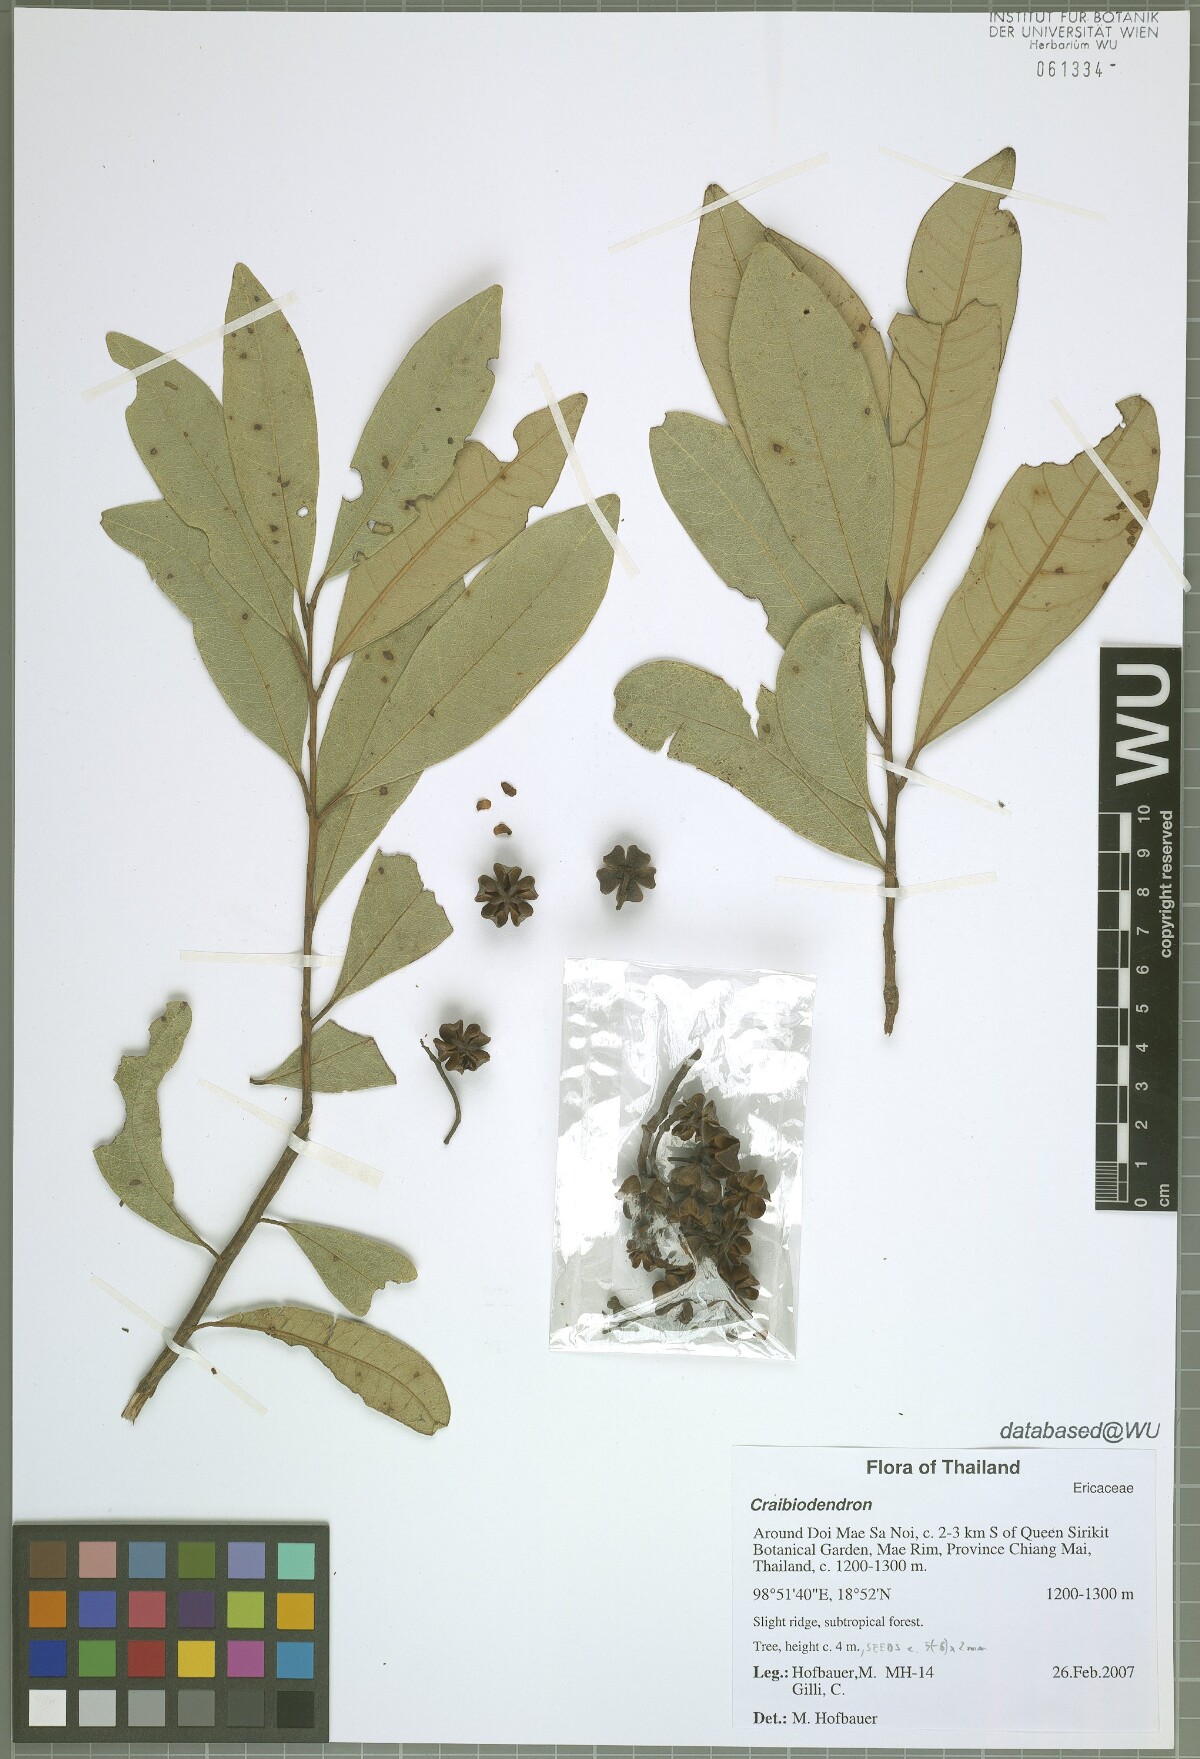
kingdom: Plantae
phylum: Tracheophyta
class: Magnoliopsida
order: Ericales
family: Ericaceae
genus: Craibiodendron
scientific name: Craibiodendron
